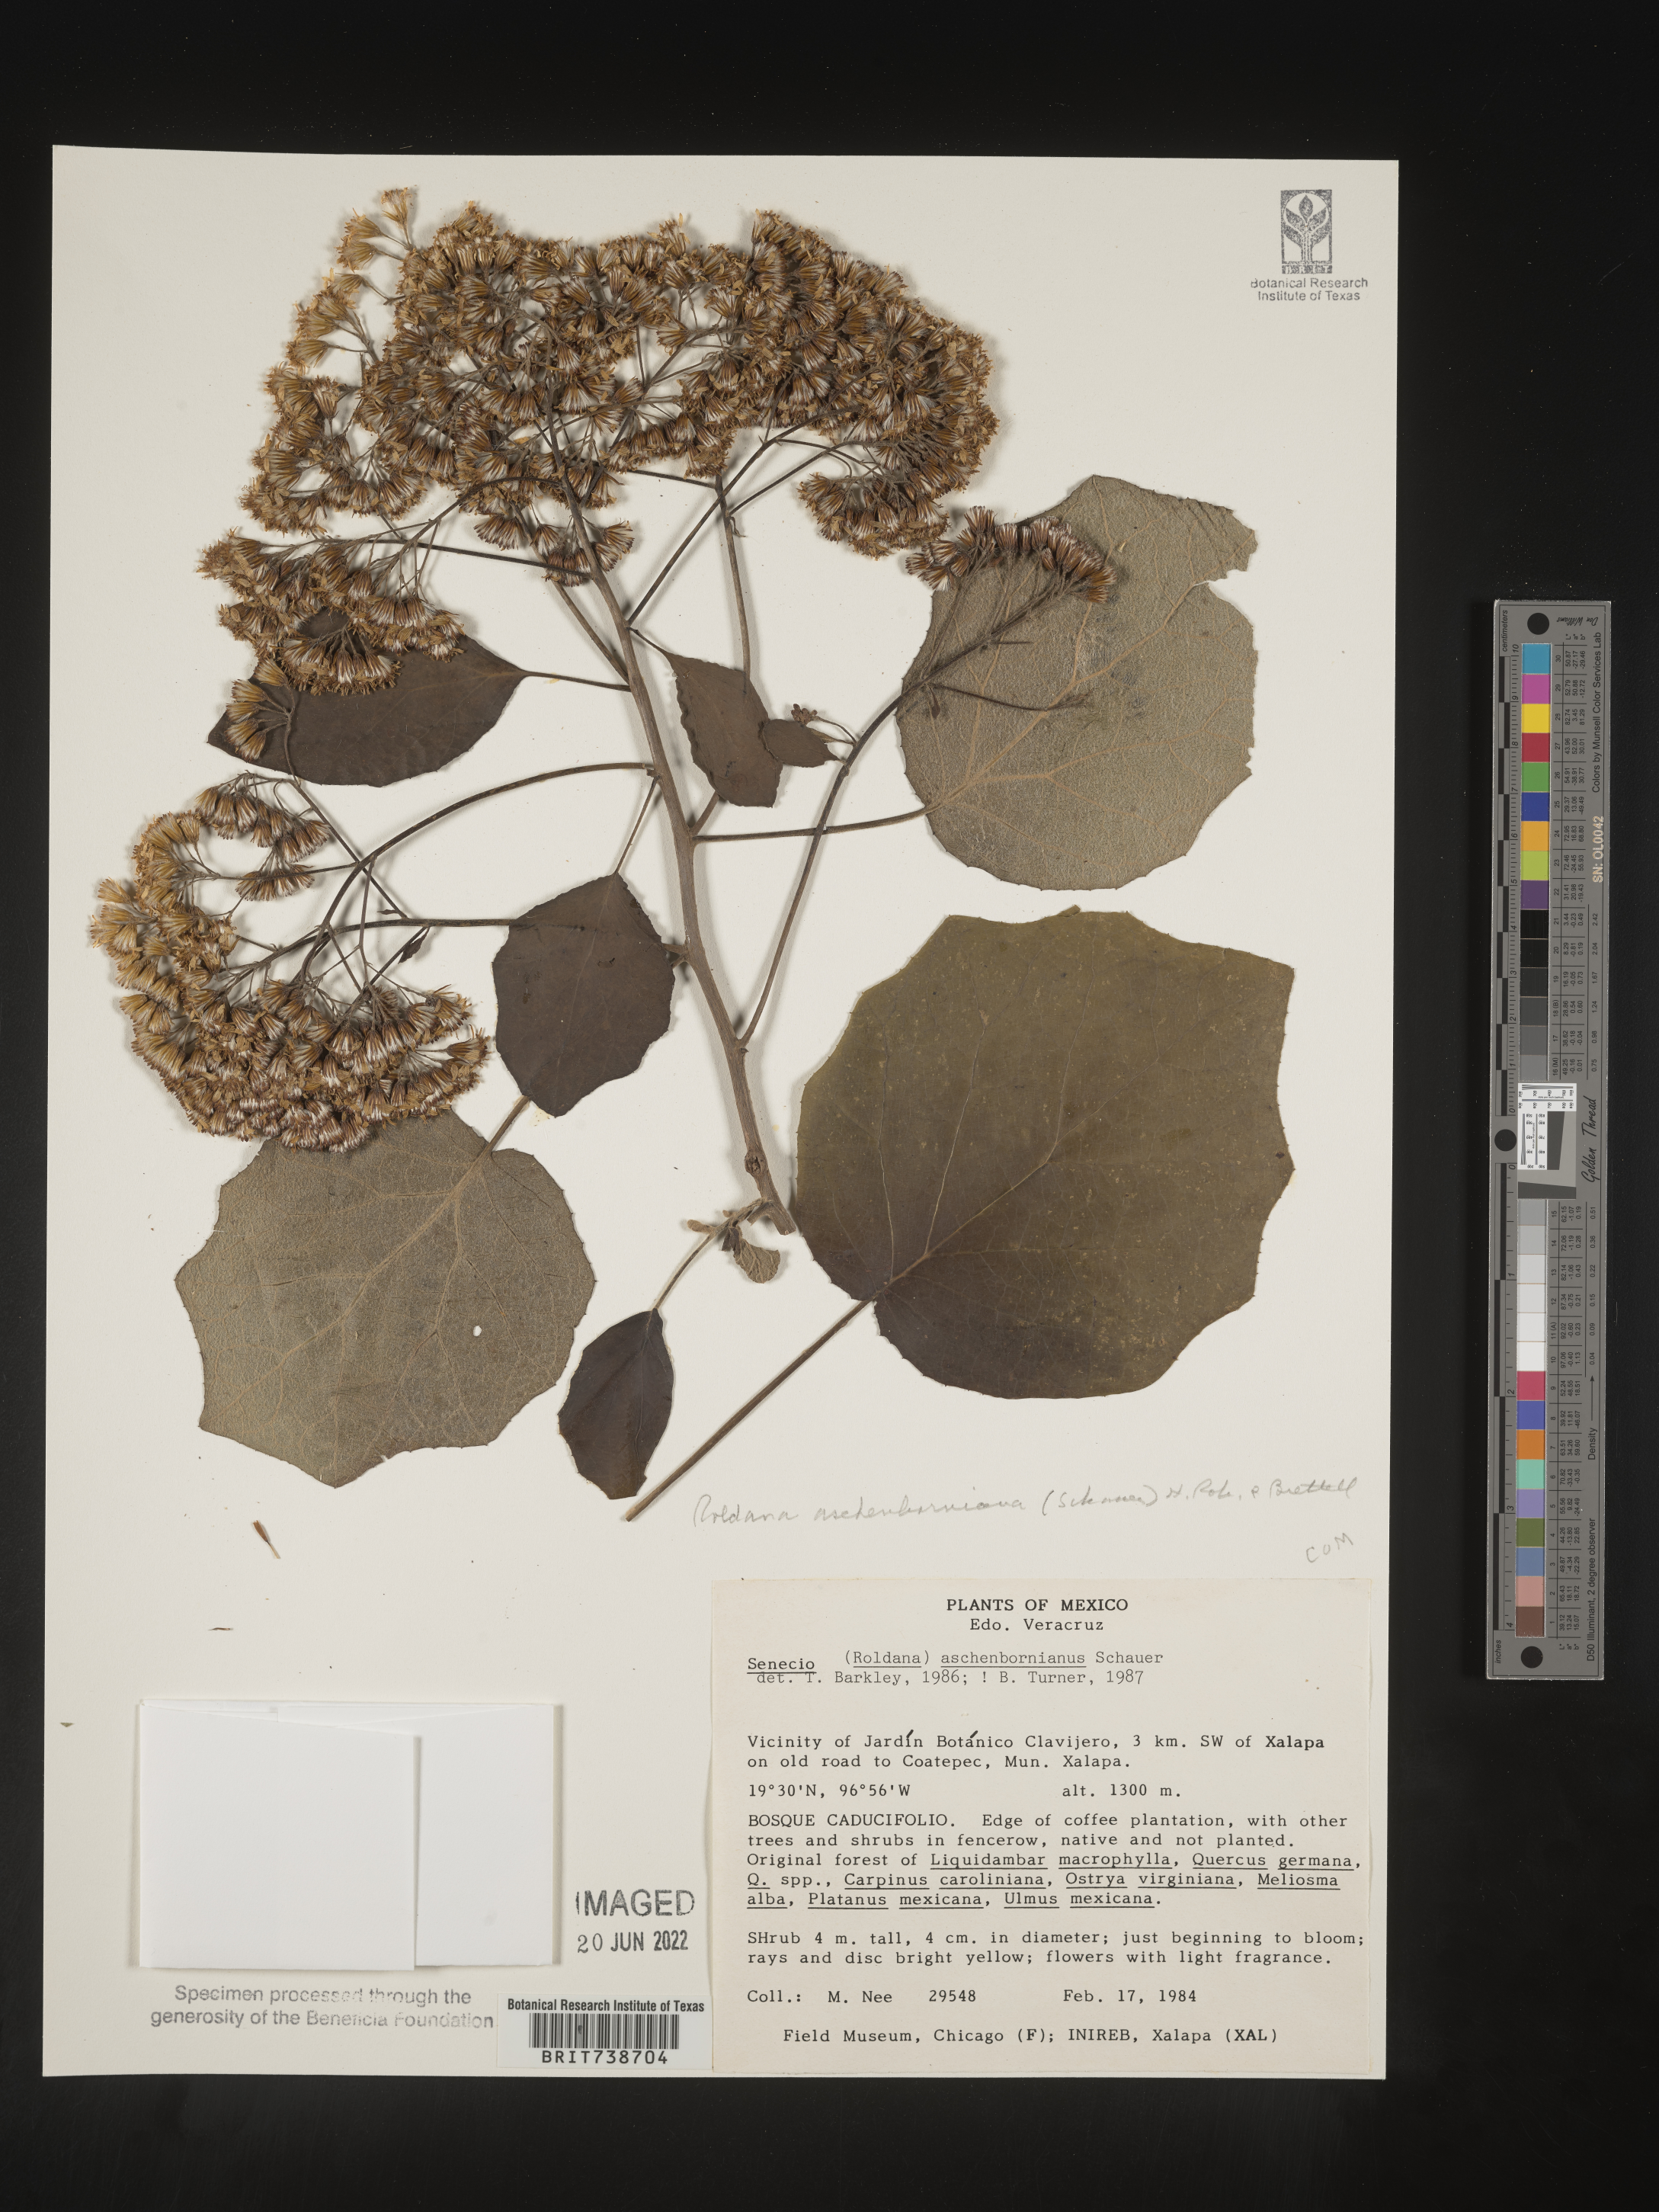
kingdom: Plantae
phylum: Tracheophyta
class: Magnoliopsida
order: Asterales
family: Asteraceae
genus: Roldana
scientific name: Roldana
